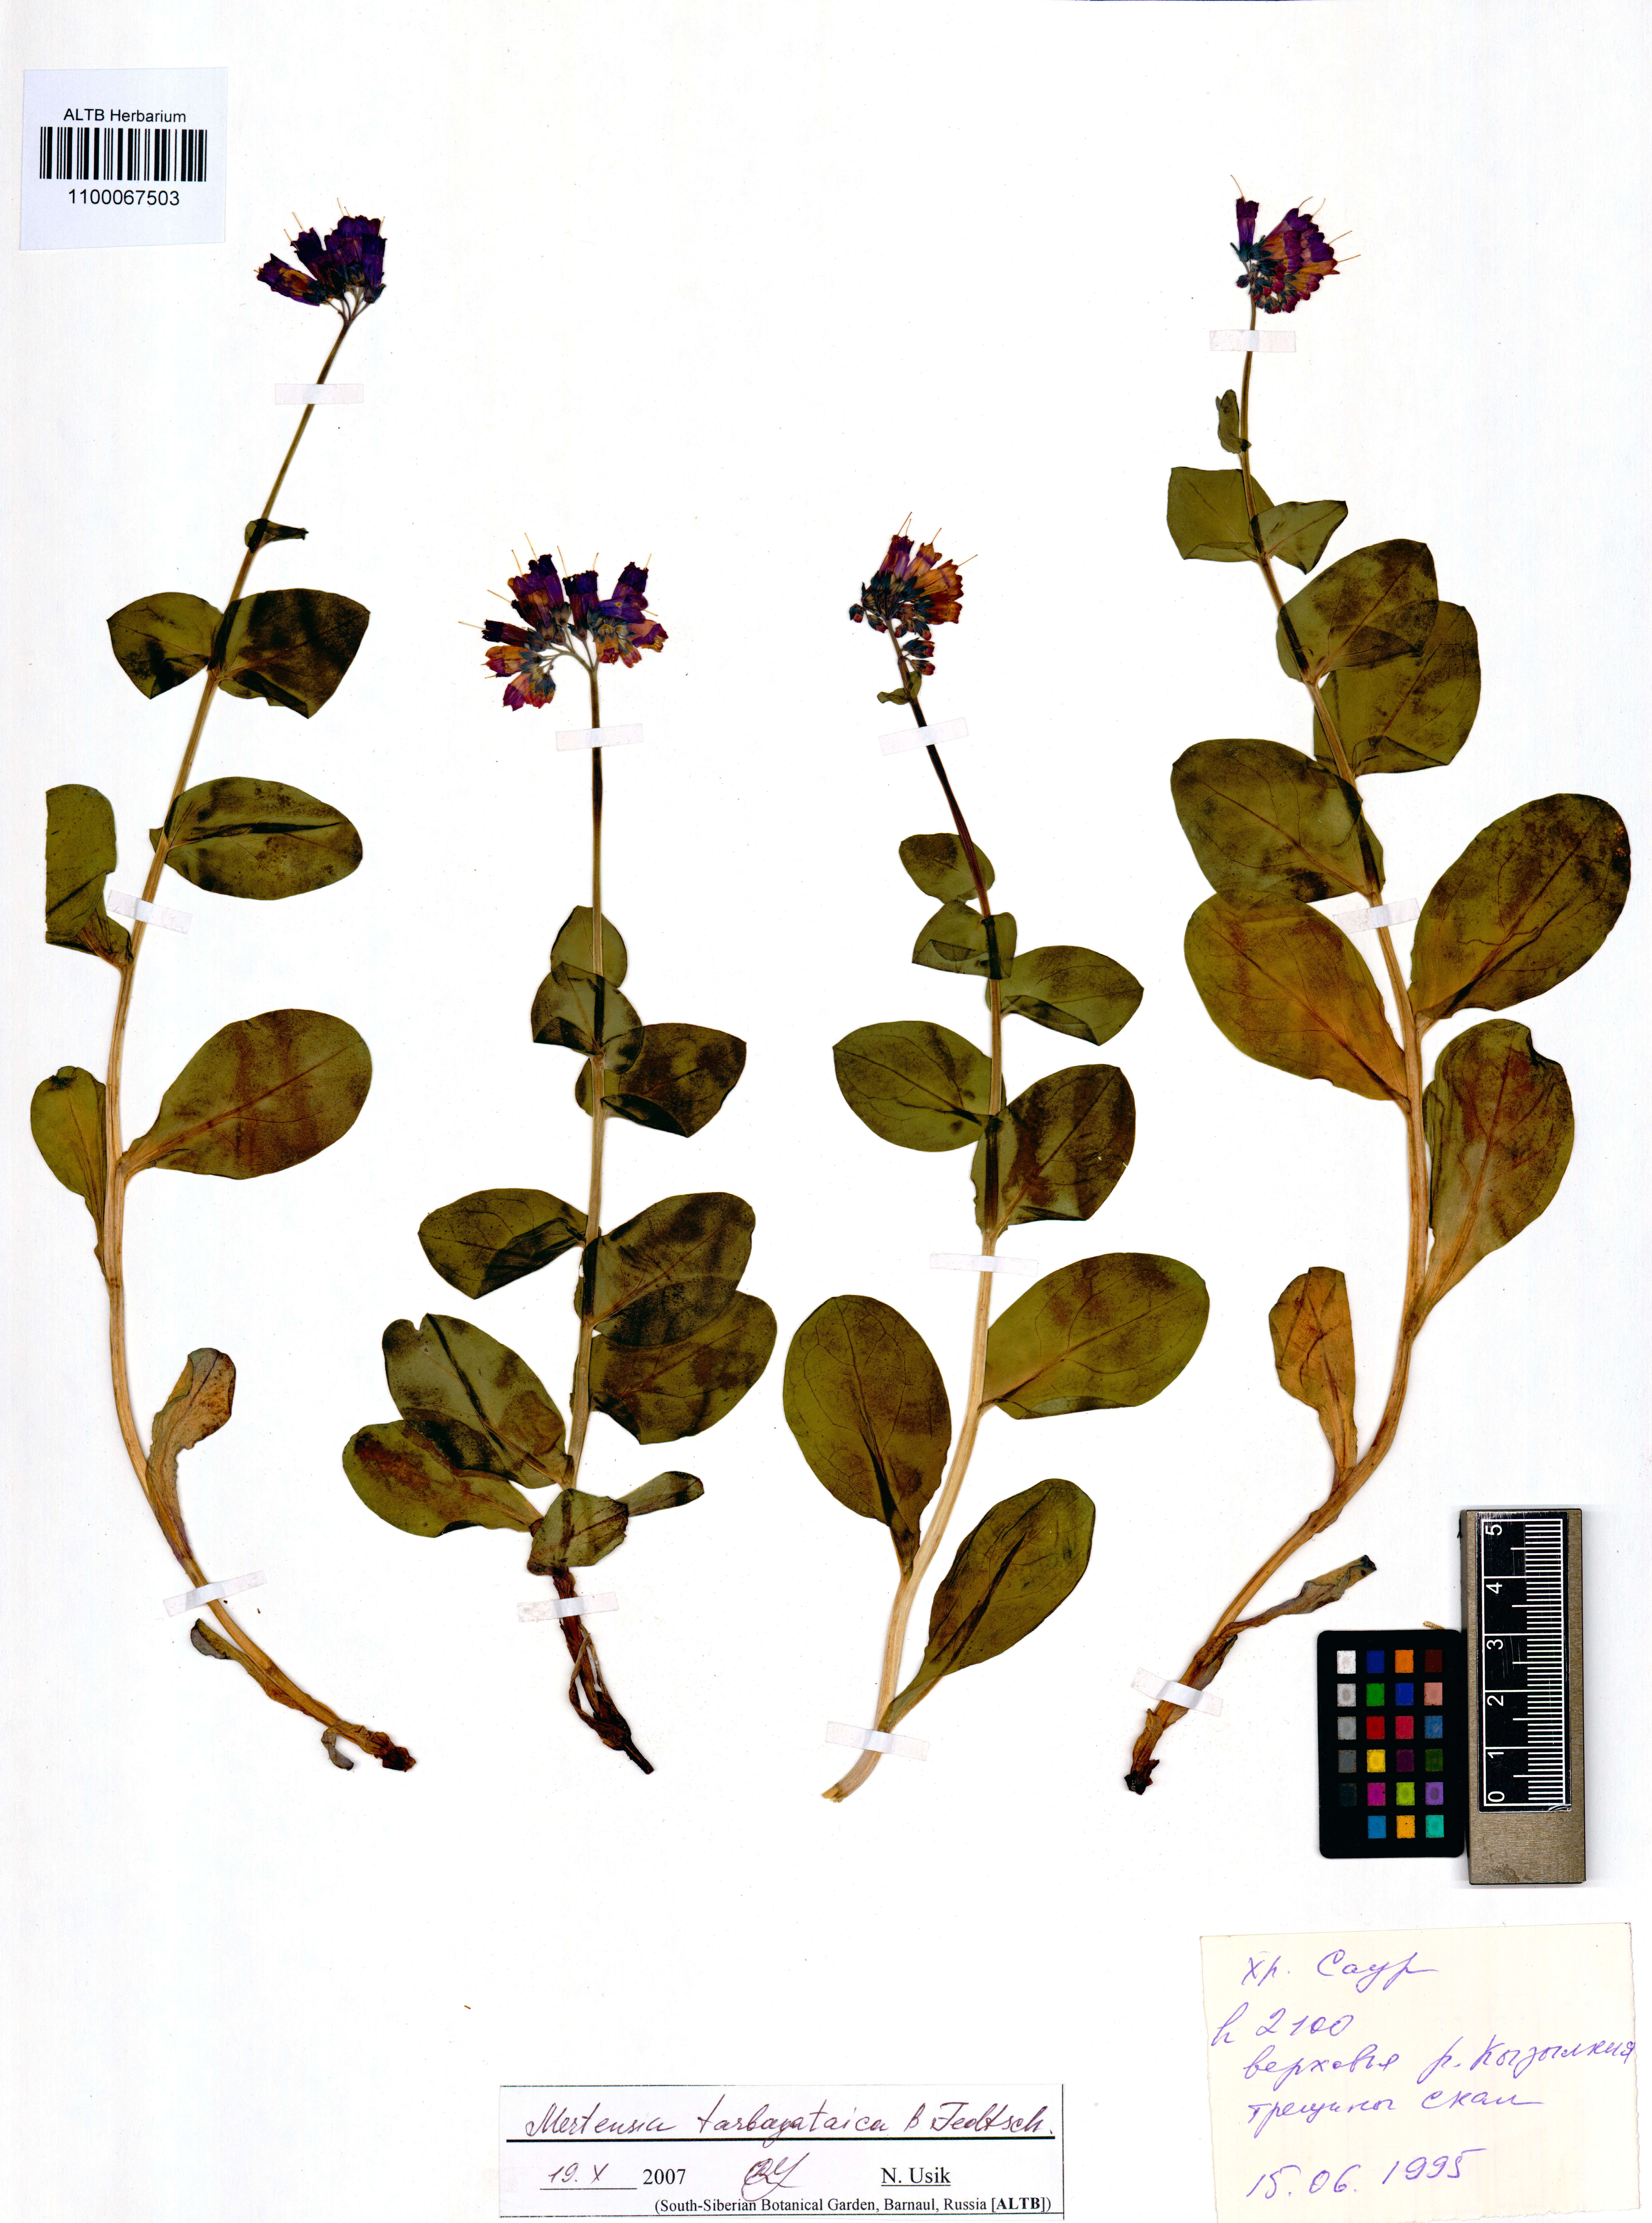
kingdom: Plantae
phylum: Tracheophyta
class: Magnoliopsida
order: Boraginales
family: Boraginaceae
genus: Mertensia
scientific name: Mertensia tarbagataica
